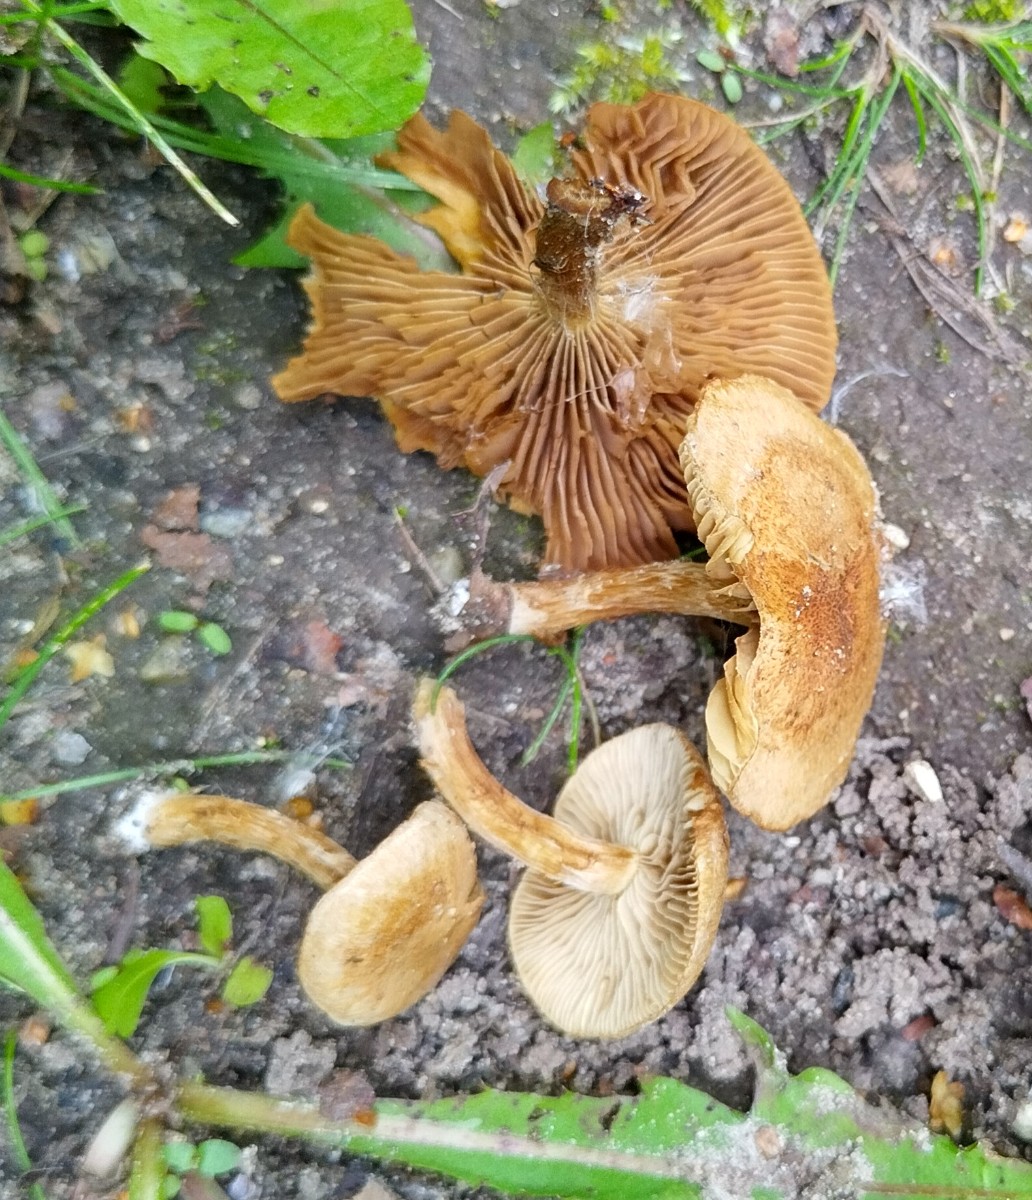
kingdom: Fungi
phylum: Basidiomycota
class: Agaricomycetes
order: Agaricales
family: Hymenogastraceae
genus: Galerina
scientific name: Galerina marginata
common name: randbæltet hjelmhat
